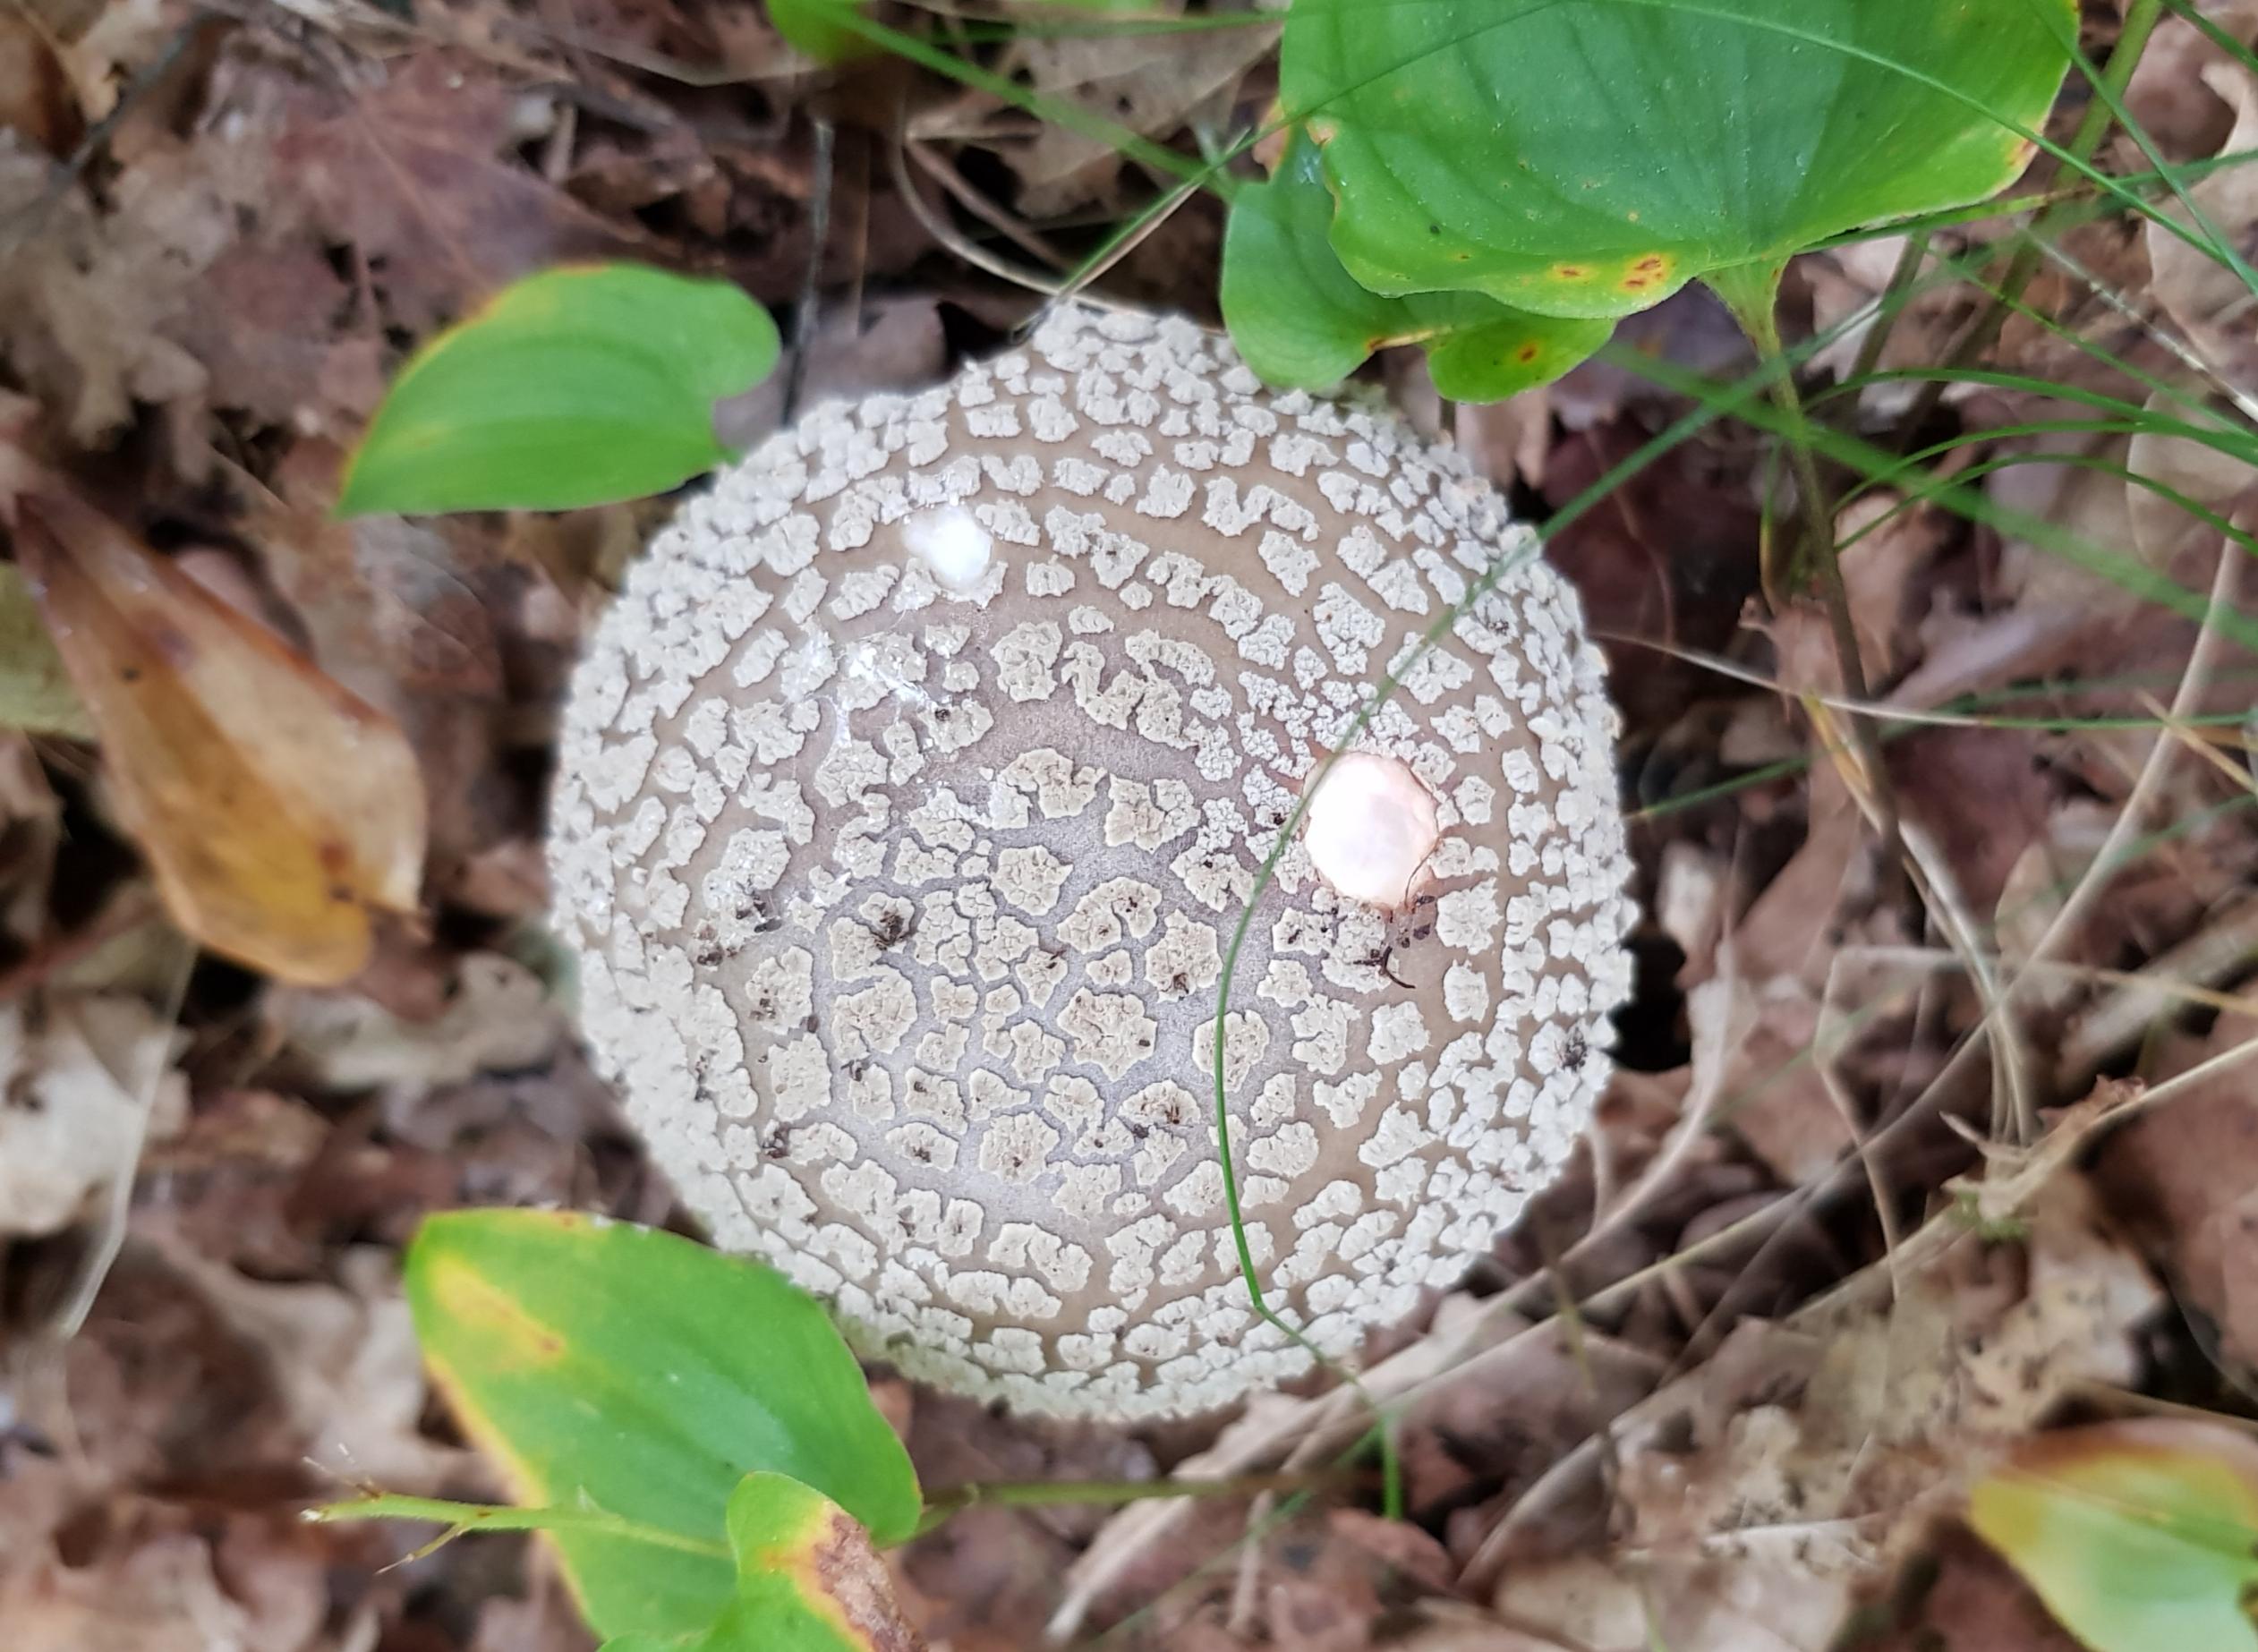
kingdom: Fungi
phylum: Basidiomycota
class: Agaricomycetes
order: Agaricales
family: Amanitaceae
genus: Amanita
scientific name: Amanita rubescens
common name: rødmende fluesvamp
